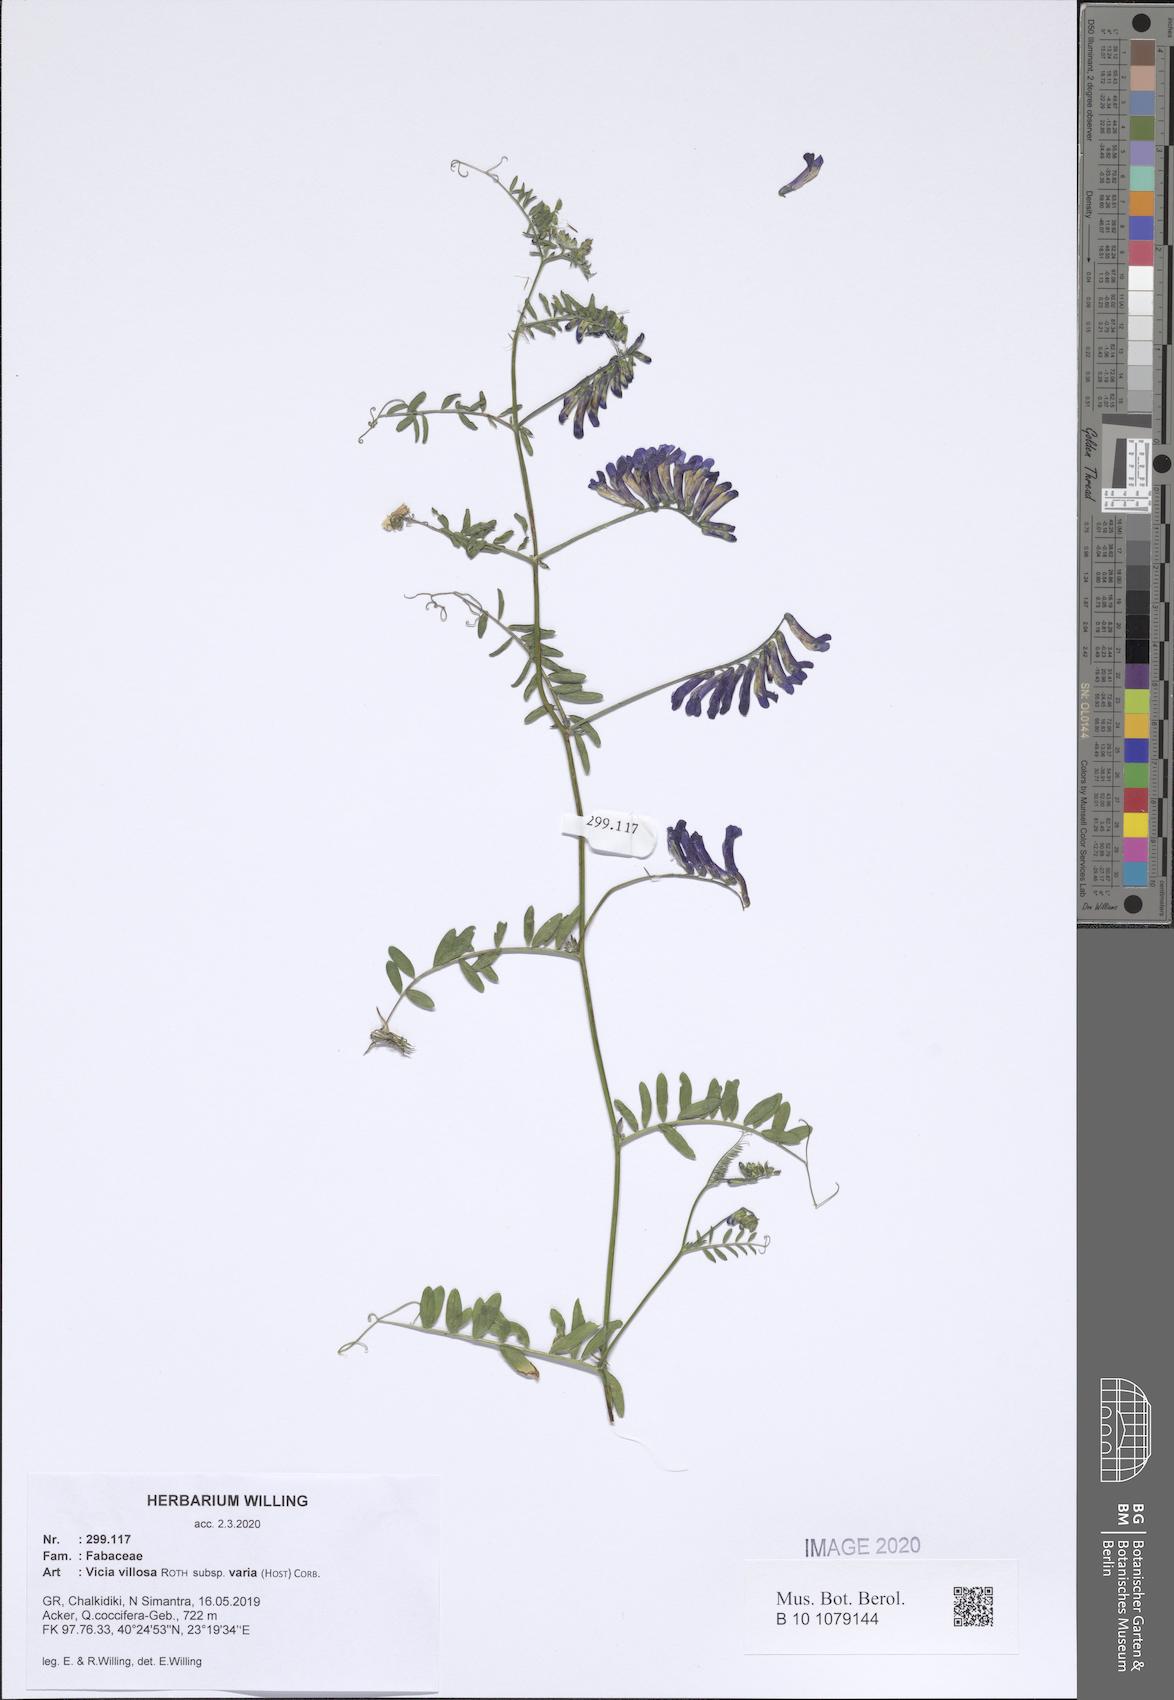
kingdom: Plantae
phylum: Tracheophyta
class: Magnoliopsida
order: Fabales
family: Fabaceae
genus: Vicia
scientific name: Vicia villosa
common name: Fodder vetch
